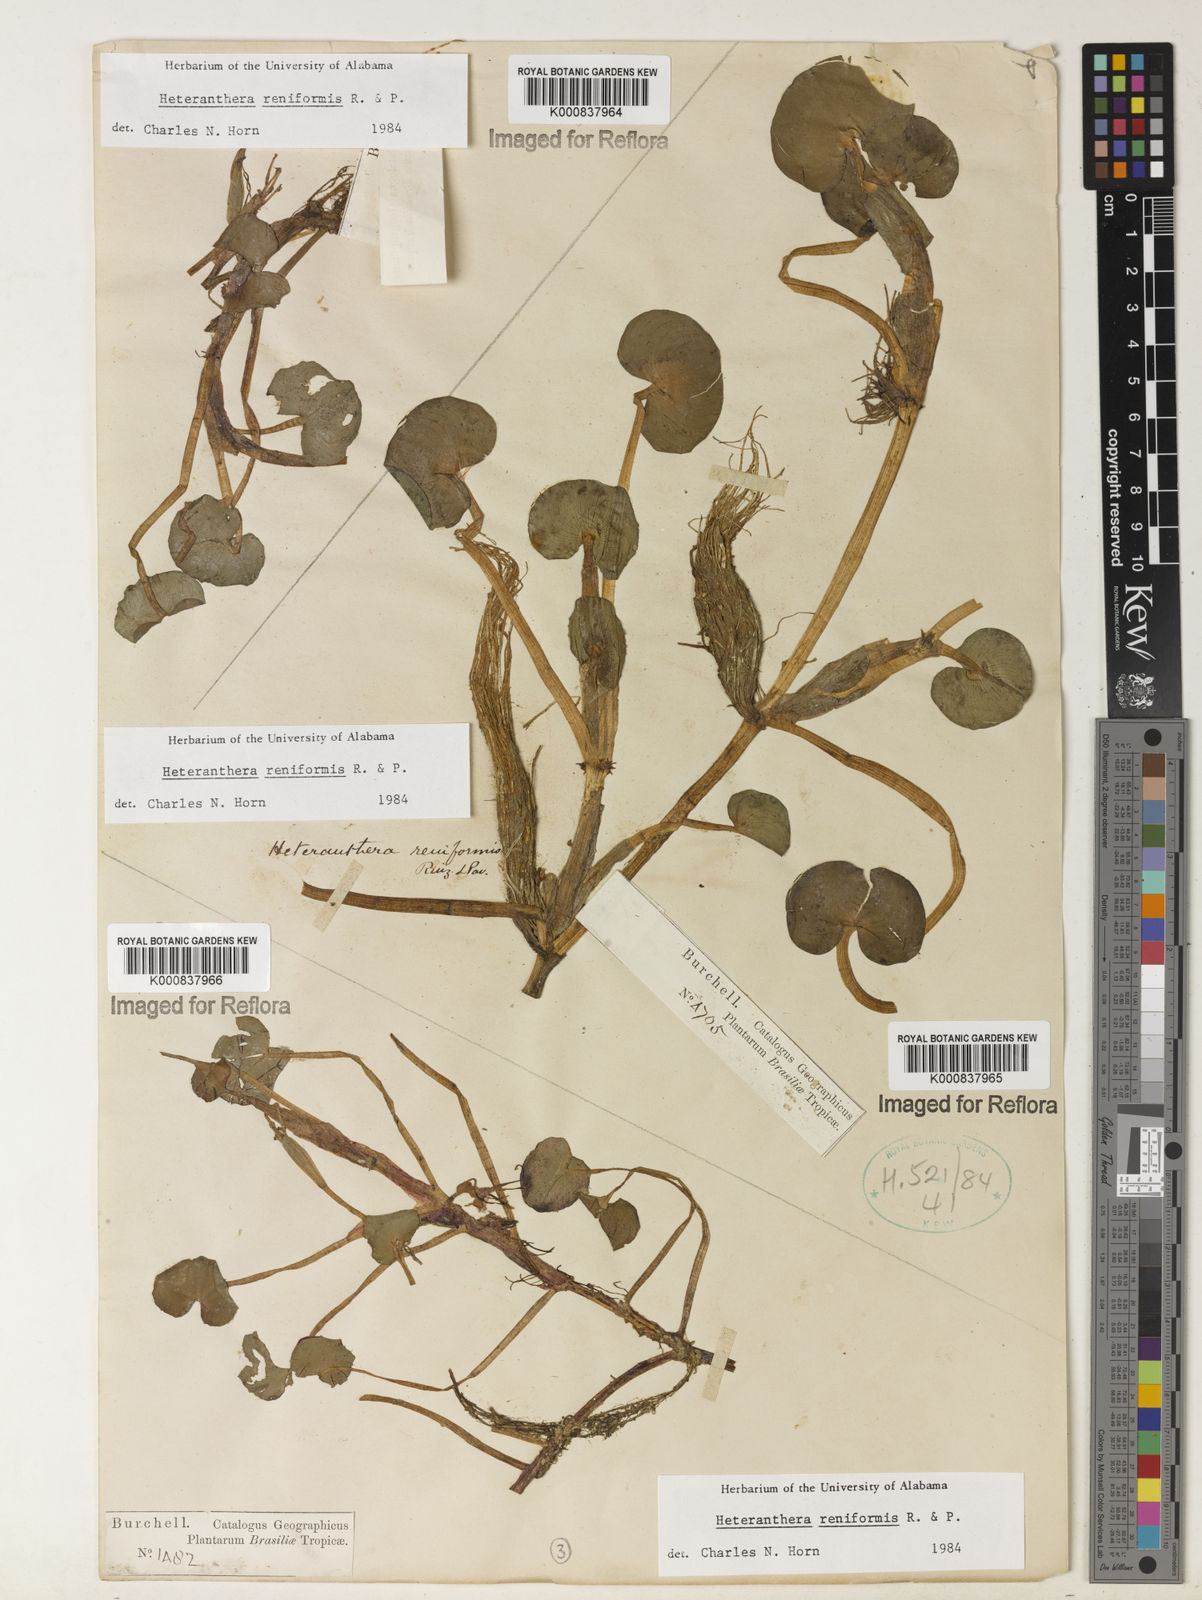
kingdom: Plantae
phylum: Tracheophyta
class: Liliopsida
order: Commelinales
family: Pontederiaceae
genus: Heteranthera
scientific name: Heteranthera reniformis
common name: Kidneyleaf mudplantain
